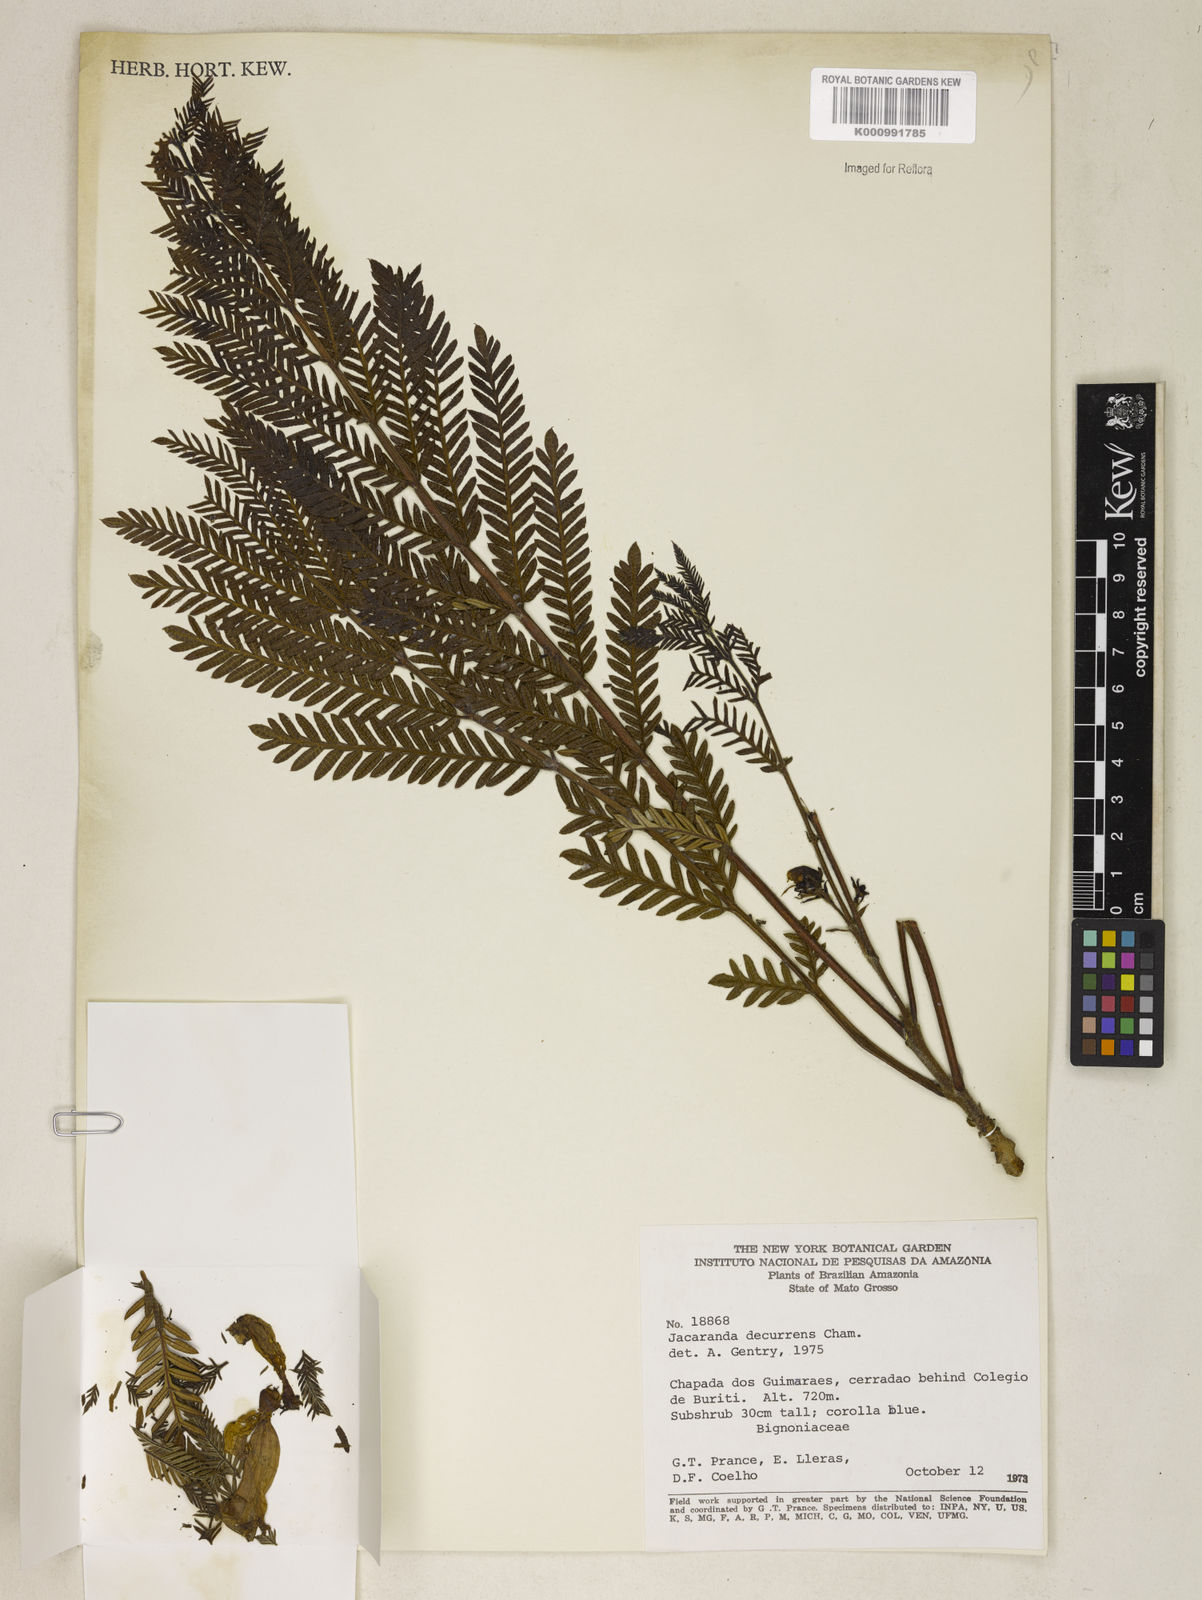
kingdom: Plantae
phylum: Tracheophyta
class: Magnoliopsida
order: Lamiales
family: Bignoniaceae
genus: Jacaranda
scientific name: Jacaranda decurrens
